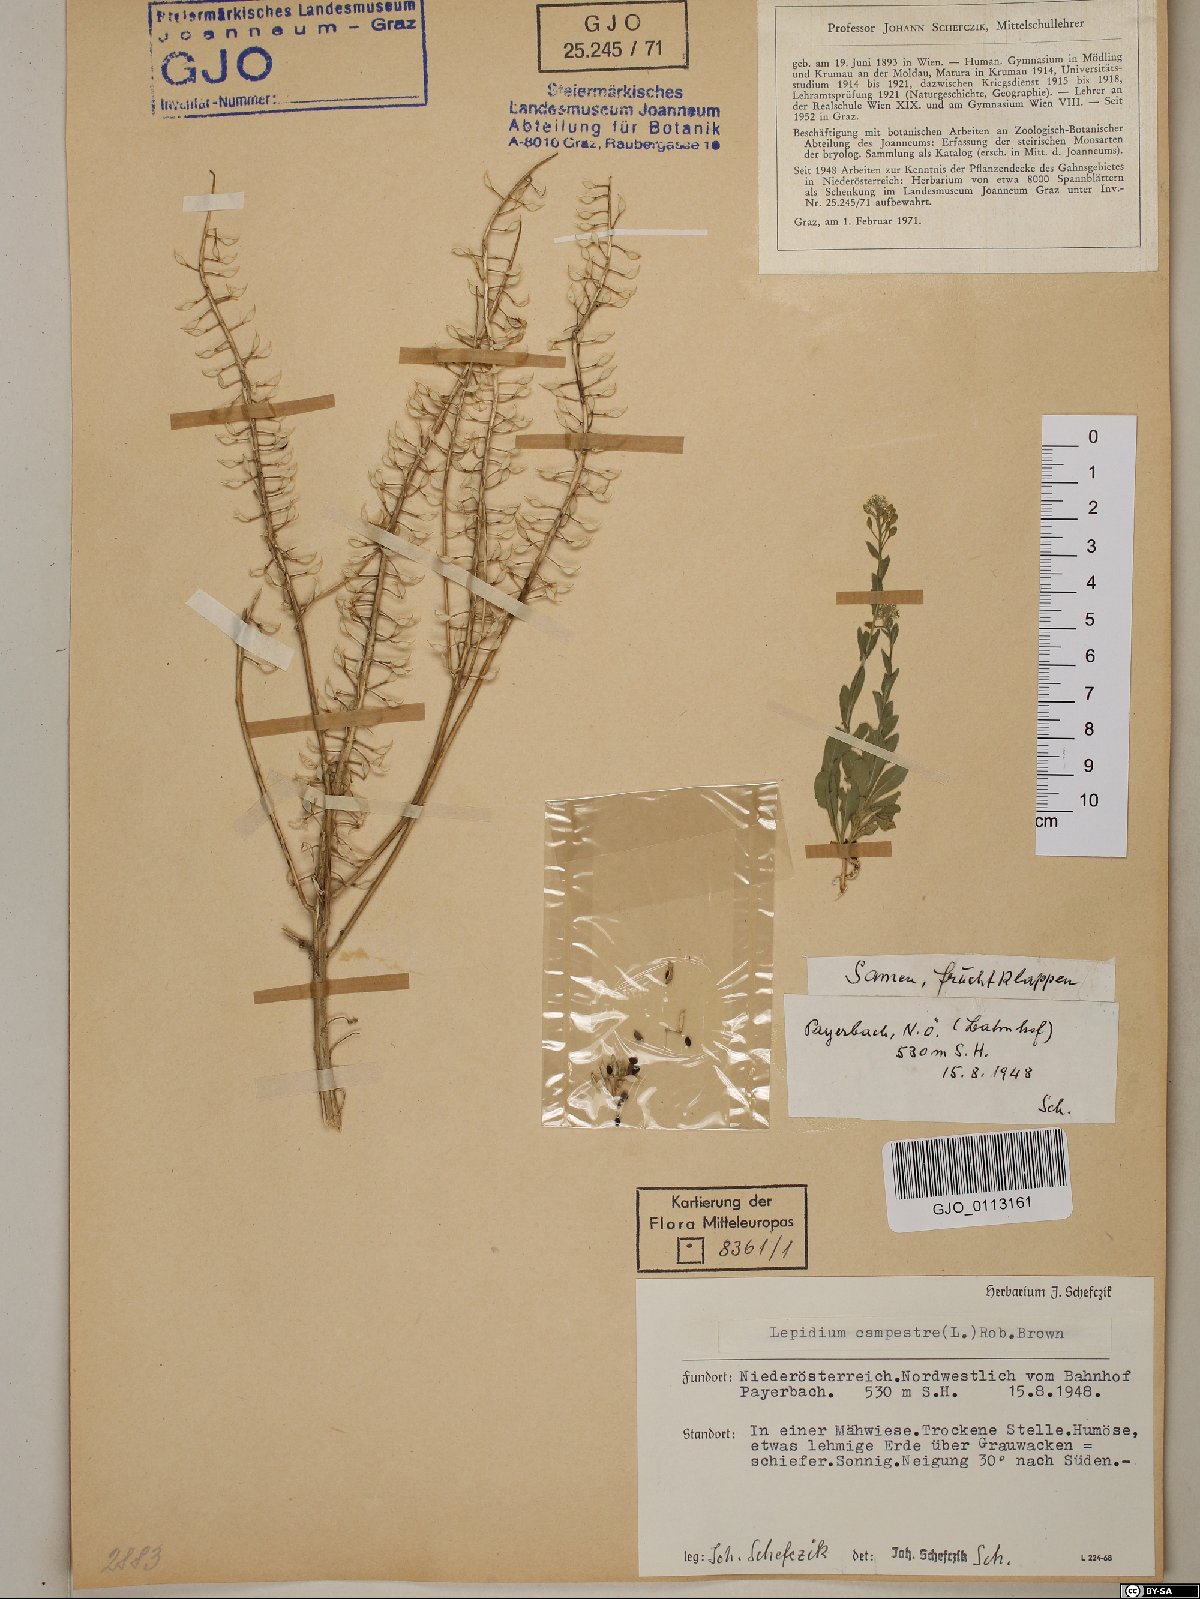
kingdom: Plantae
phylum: Tracheophyta
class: Magnoliopsida
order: Brassicales
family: Brassicaceae
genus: Lepidium
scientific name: Lepidium campestre
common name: Field pepperwort
